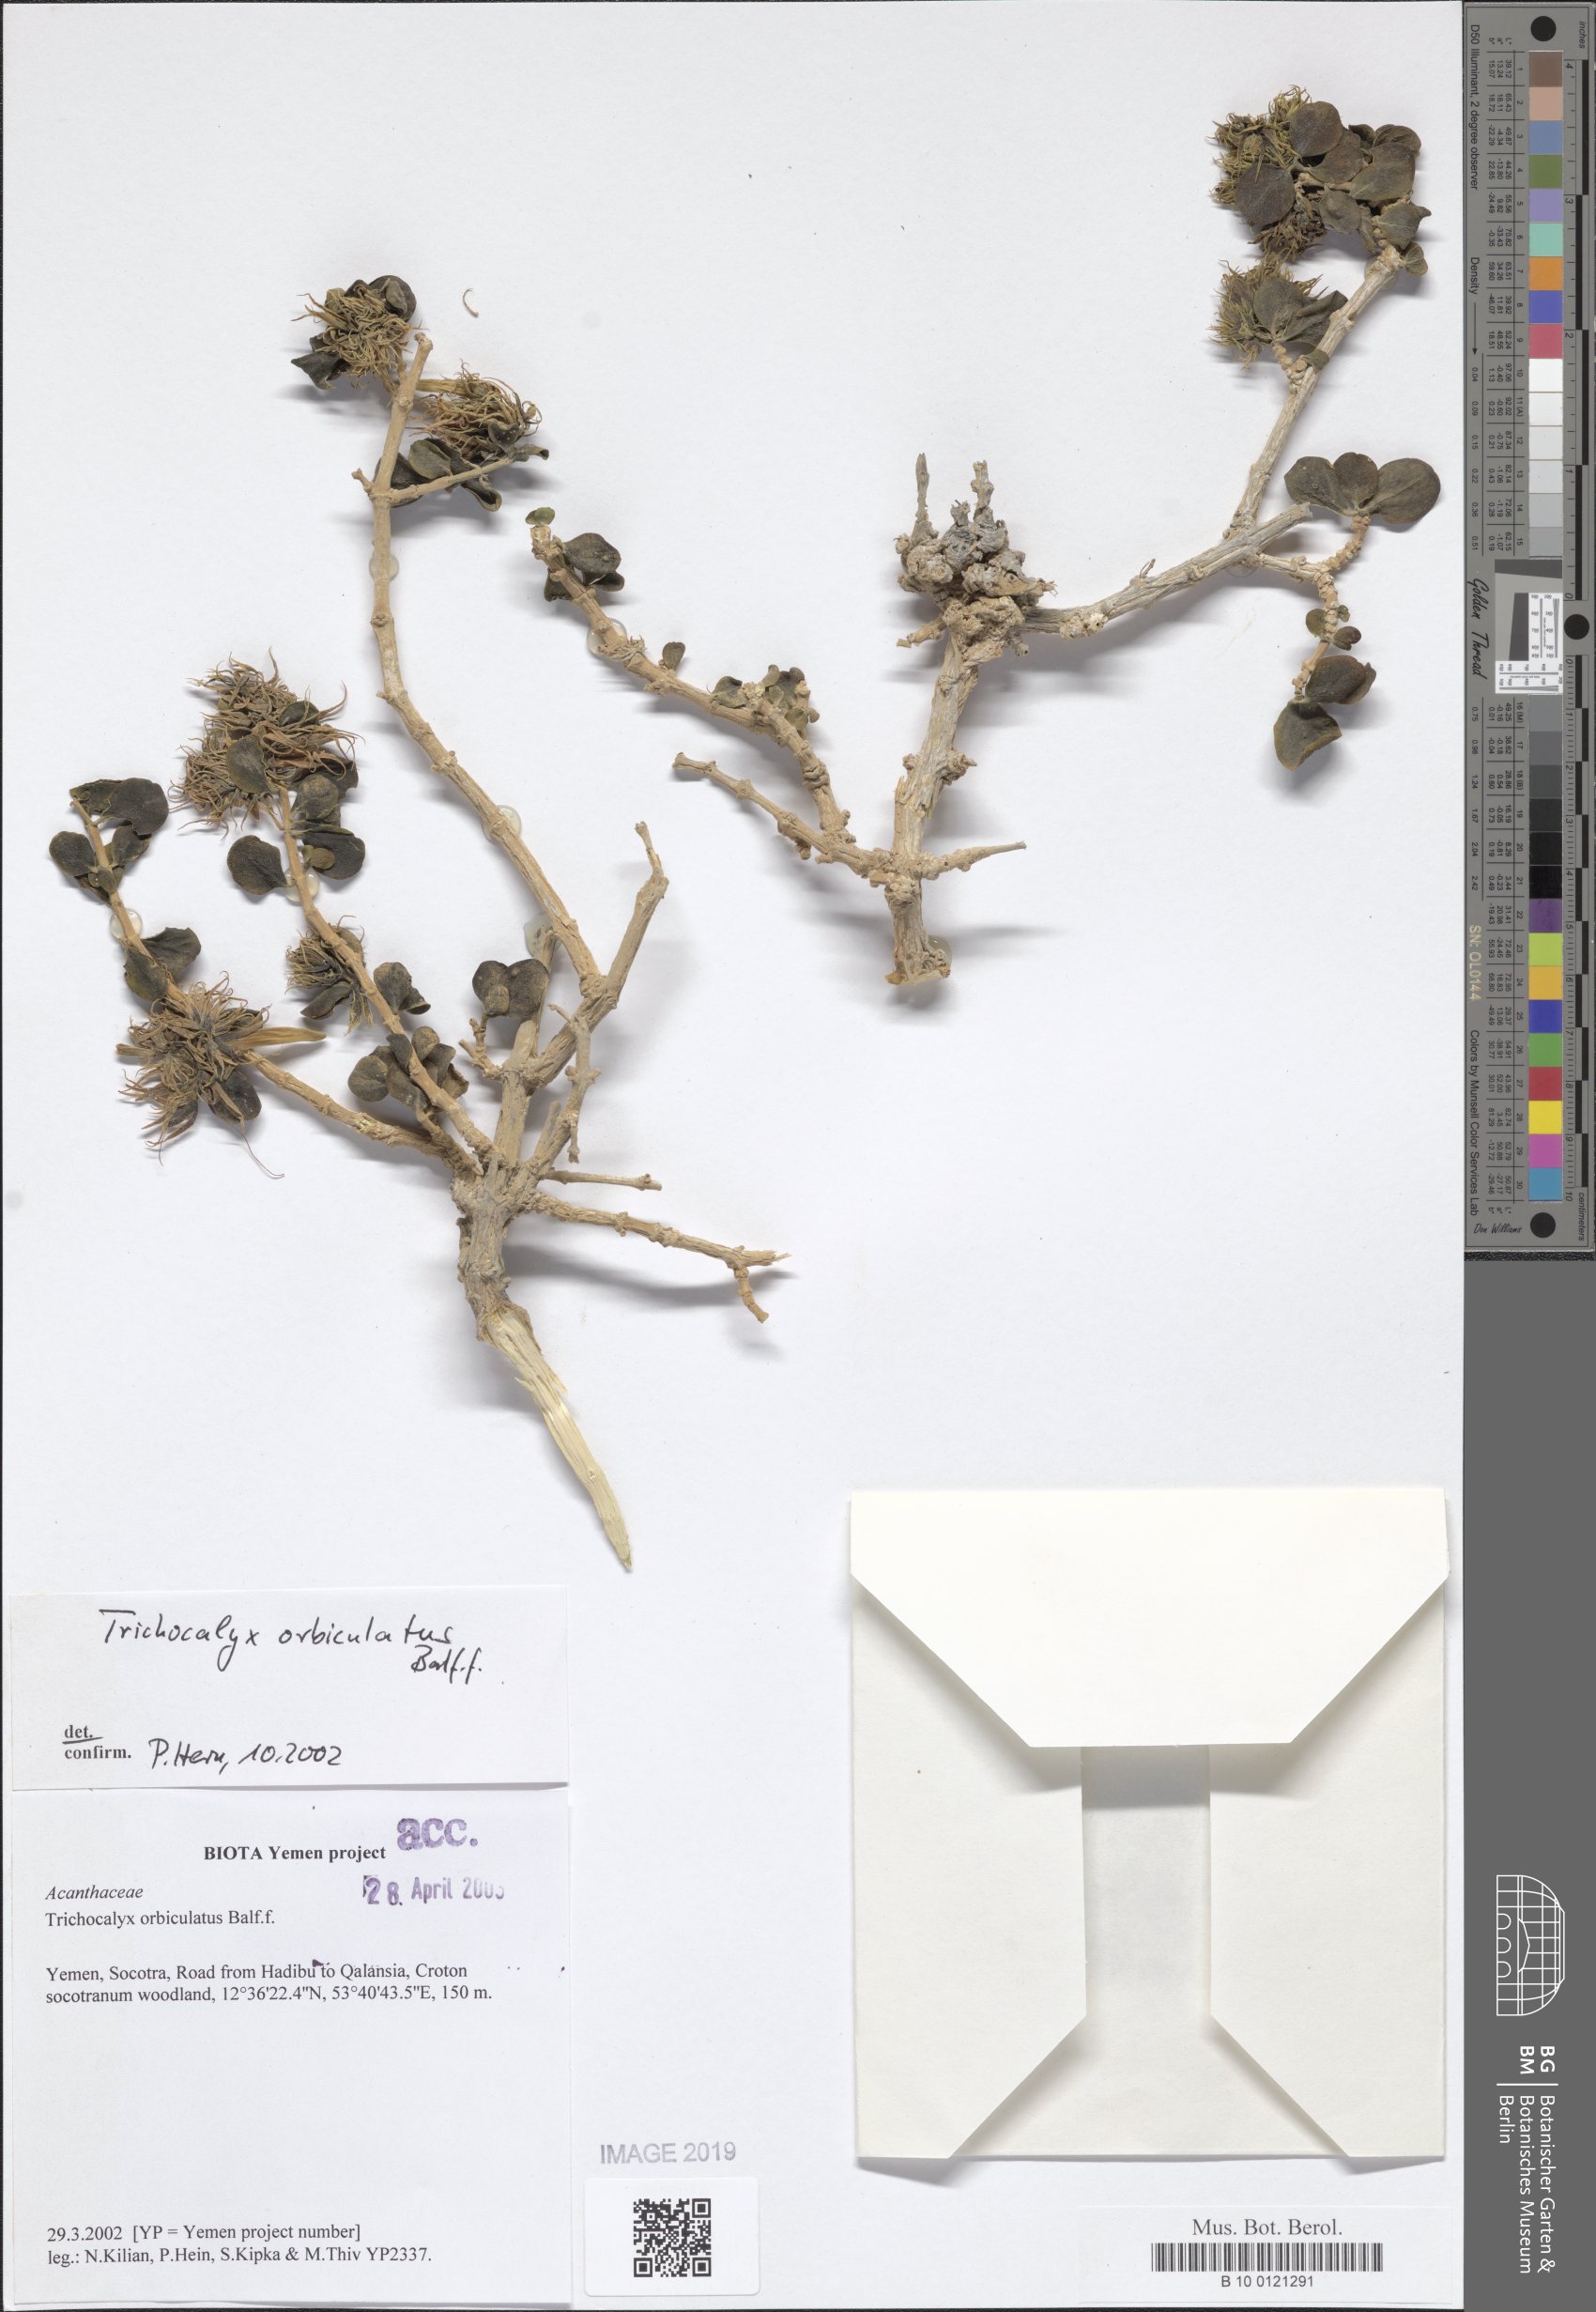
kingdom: Plantae
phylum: Tracheophyta
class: Magnoliopsida
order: Lamiales
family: Acanthaceae
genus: Trichocalyx
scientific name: Trichocalyx orbiculatus
